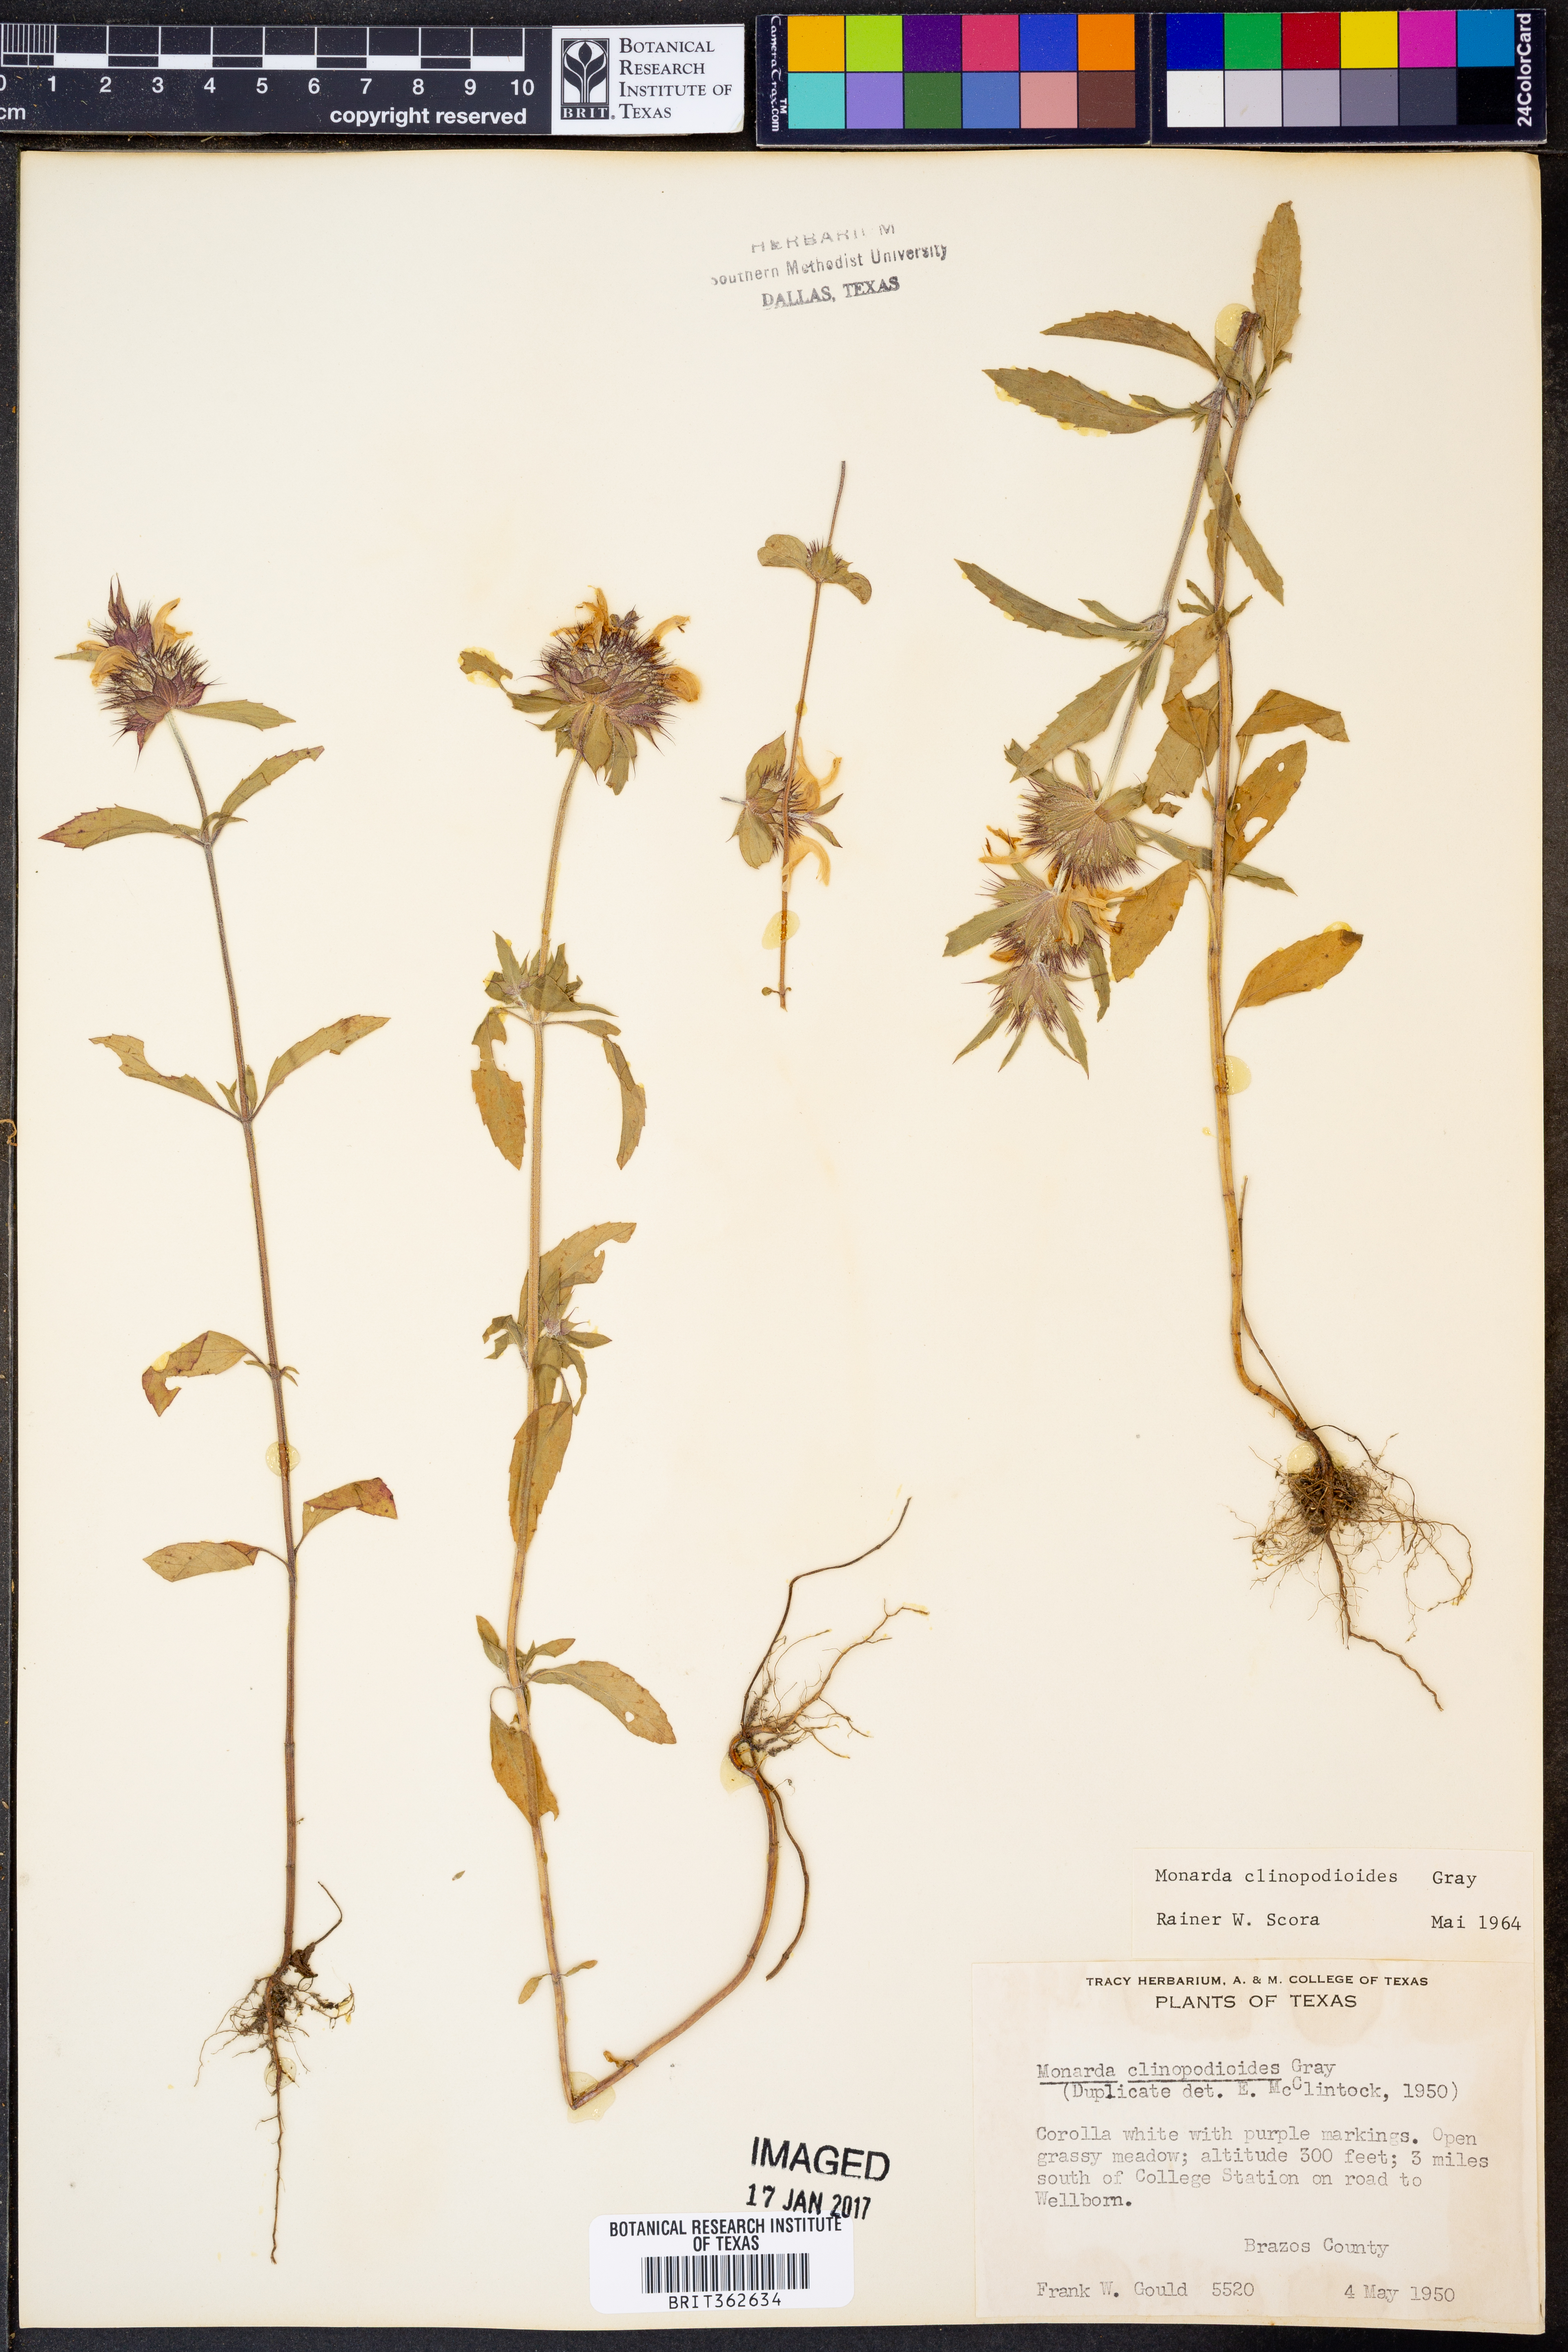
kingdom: Plantae
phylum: Tracheophyta
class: Magnoliopsida
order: Lamiales
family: Lamiaceae
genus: Monarda
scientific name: Monarda clinopodioides
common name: Basil beebalm
